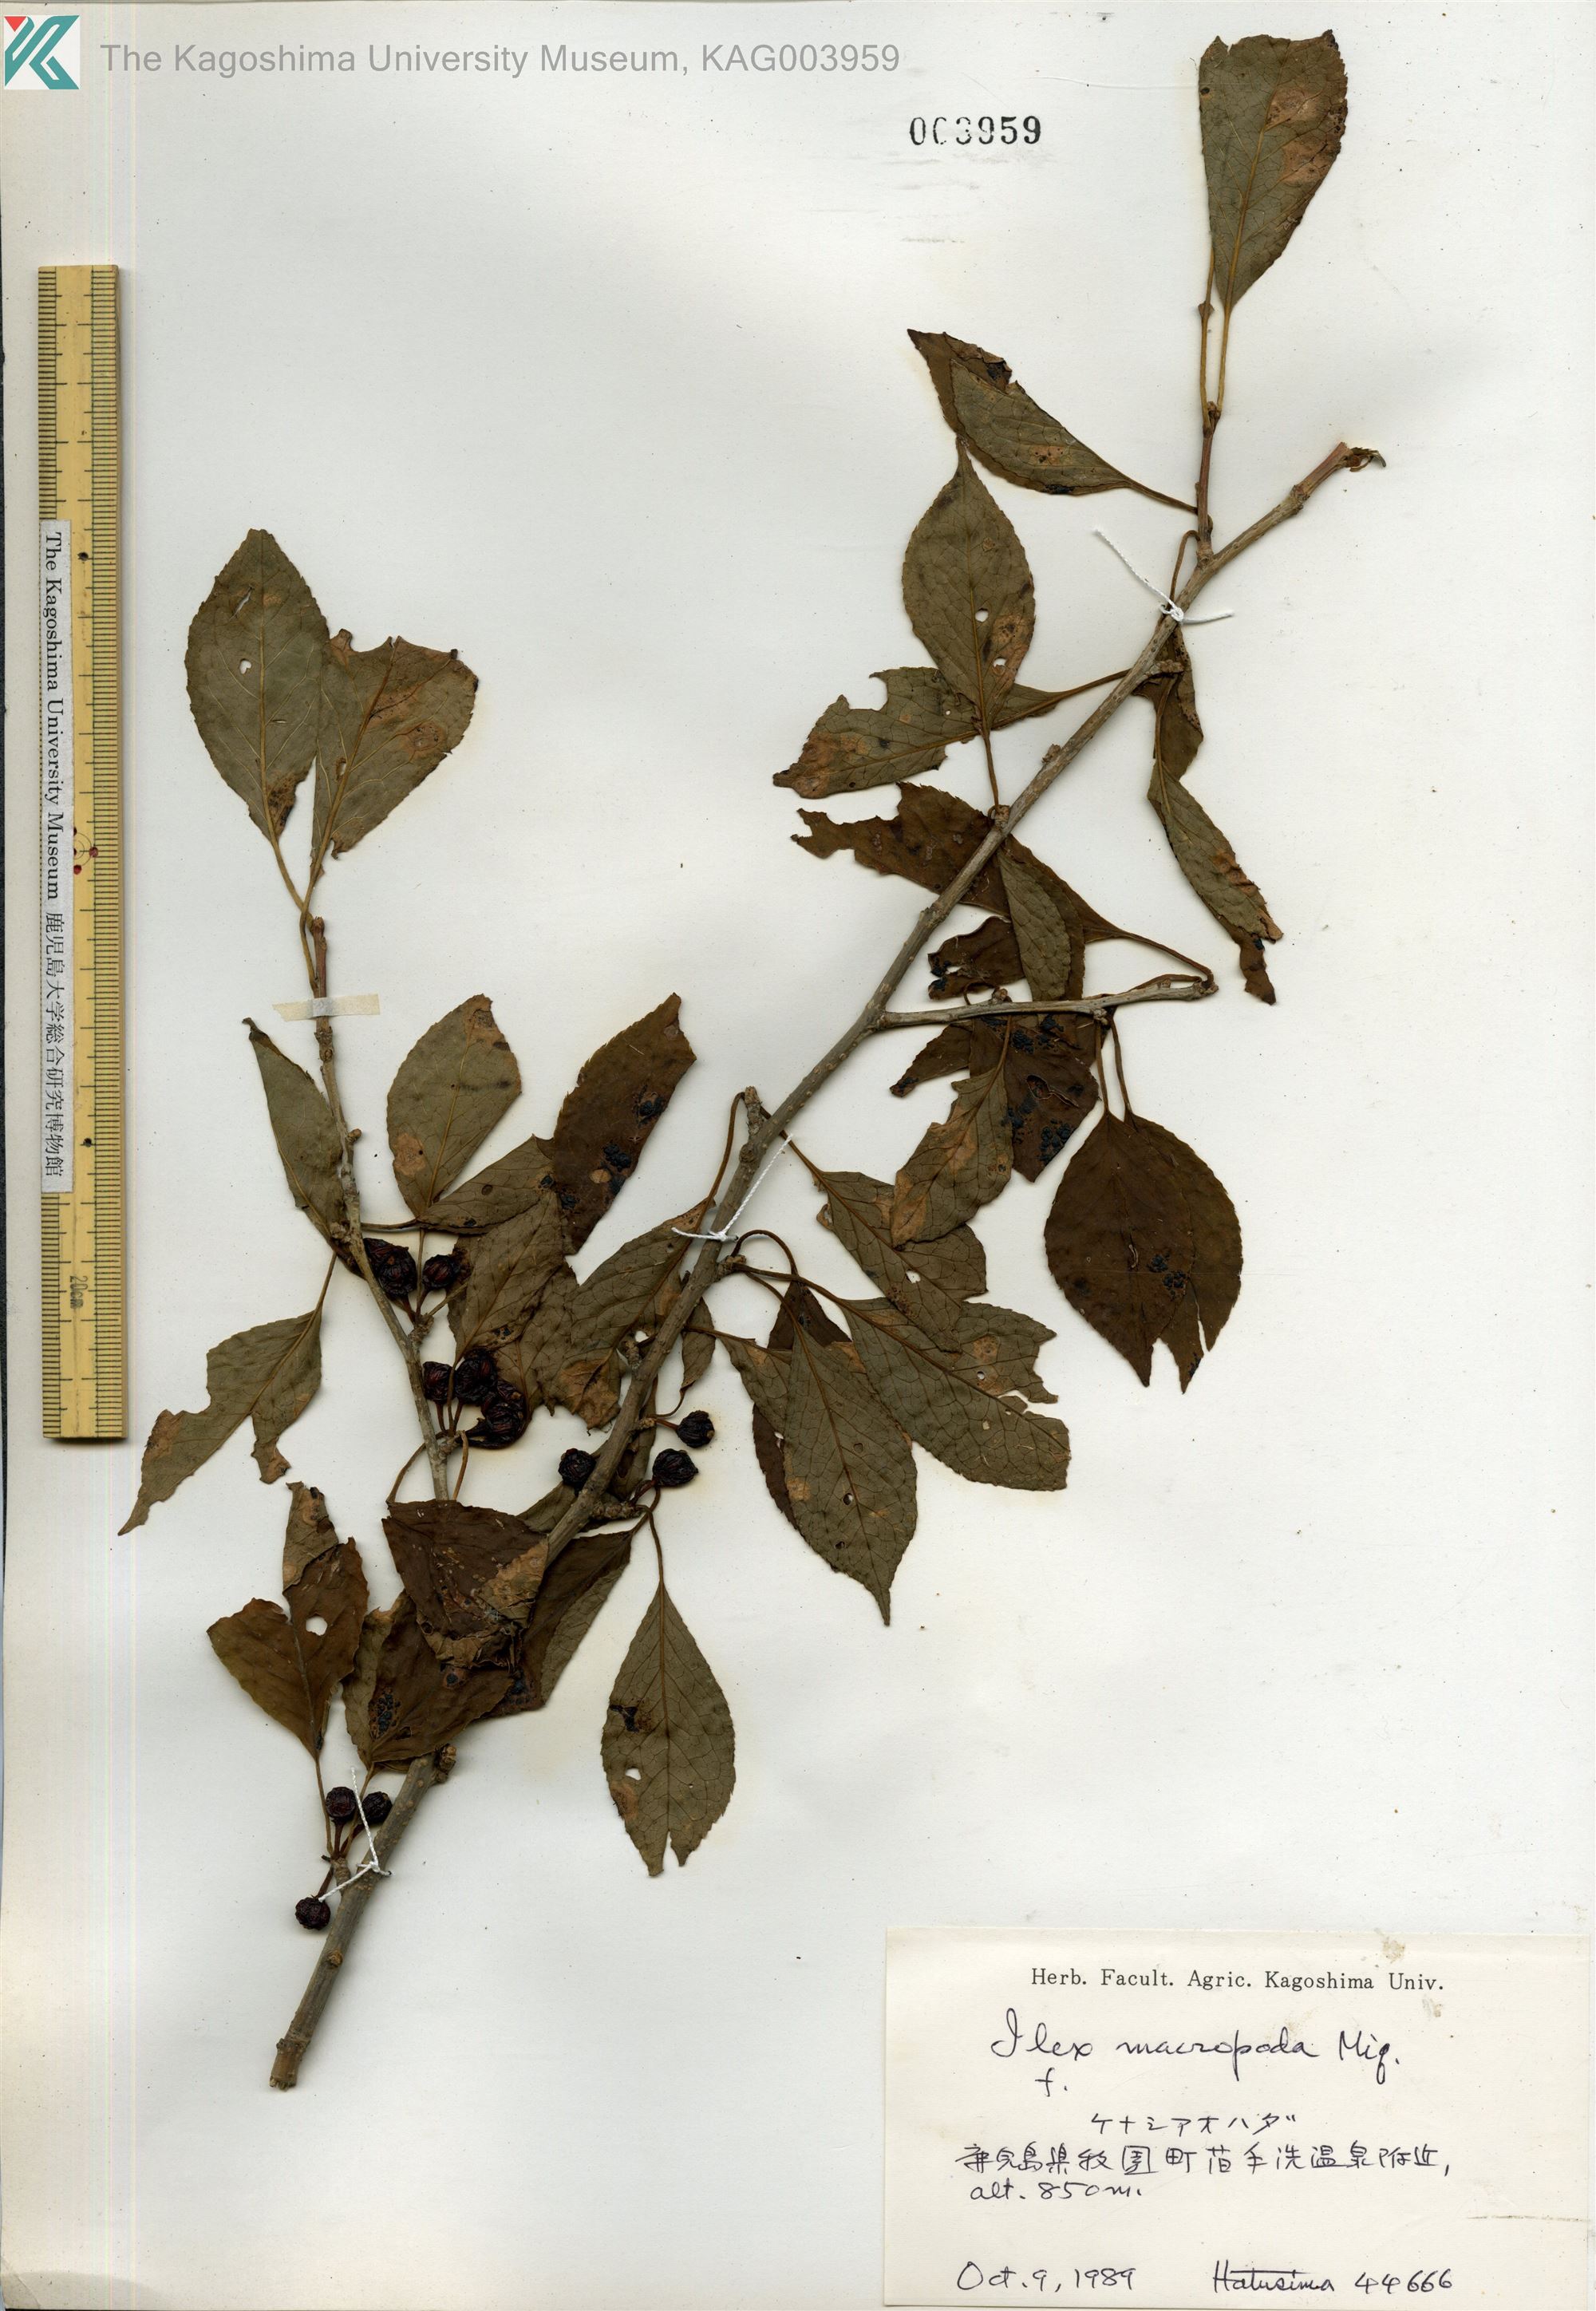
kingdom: Plantae
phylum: Tracheophyta
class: Magnoliopsida
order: Aquifoliales
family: Aquifoliaceae
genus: Ilex
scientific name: Ilex macropoda
